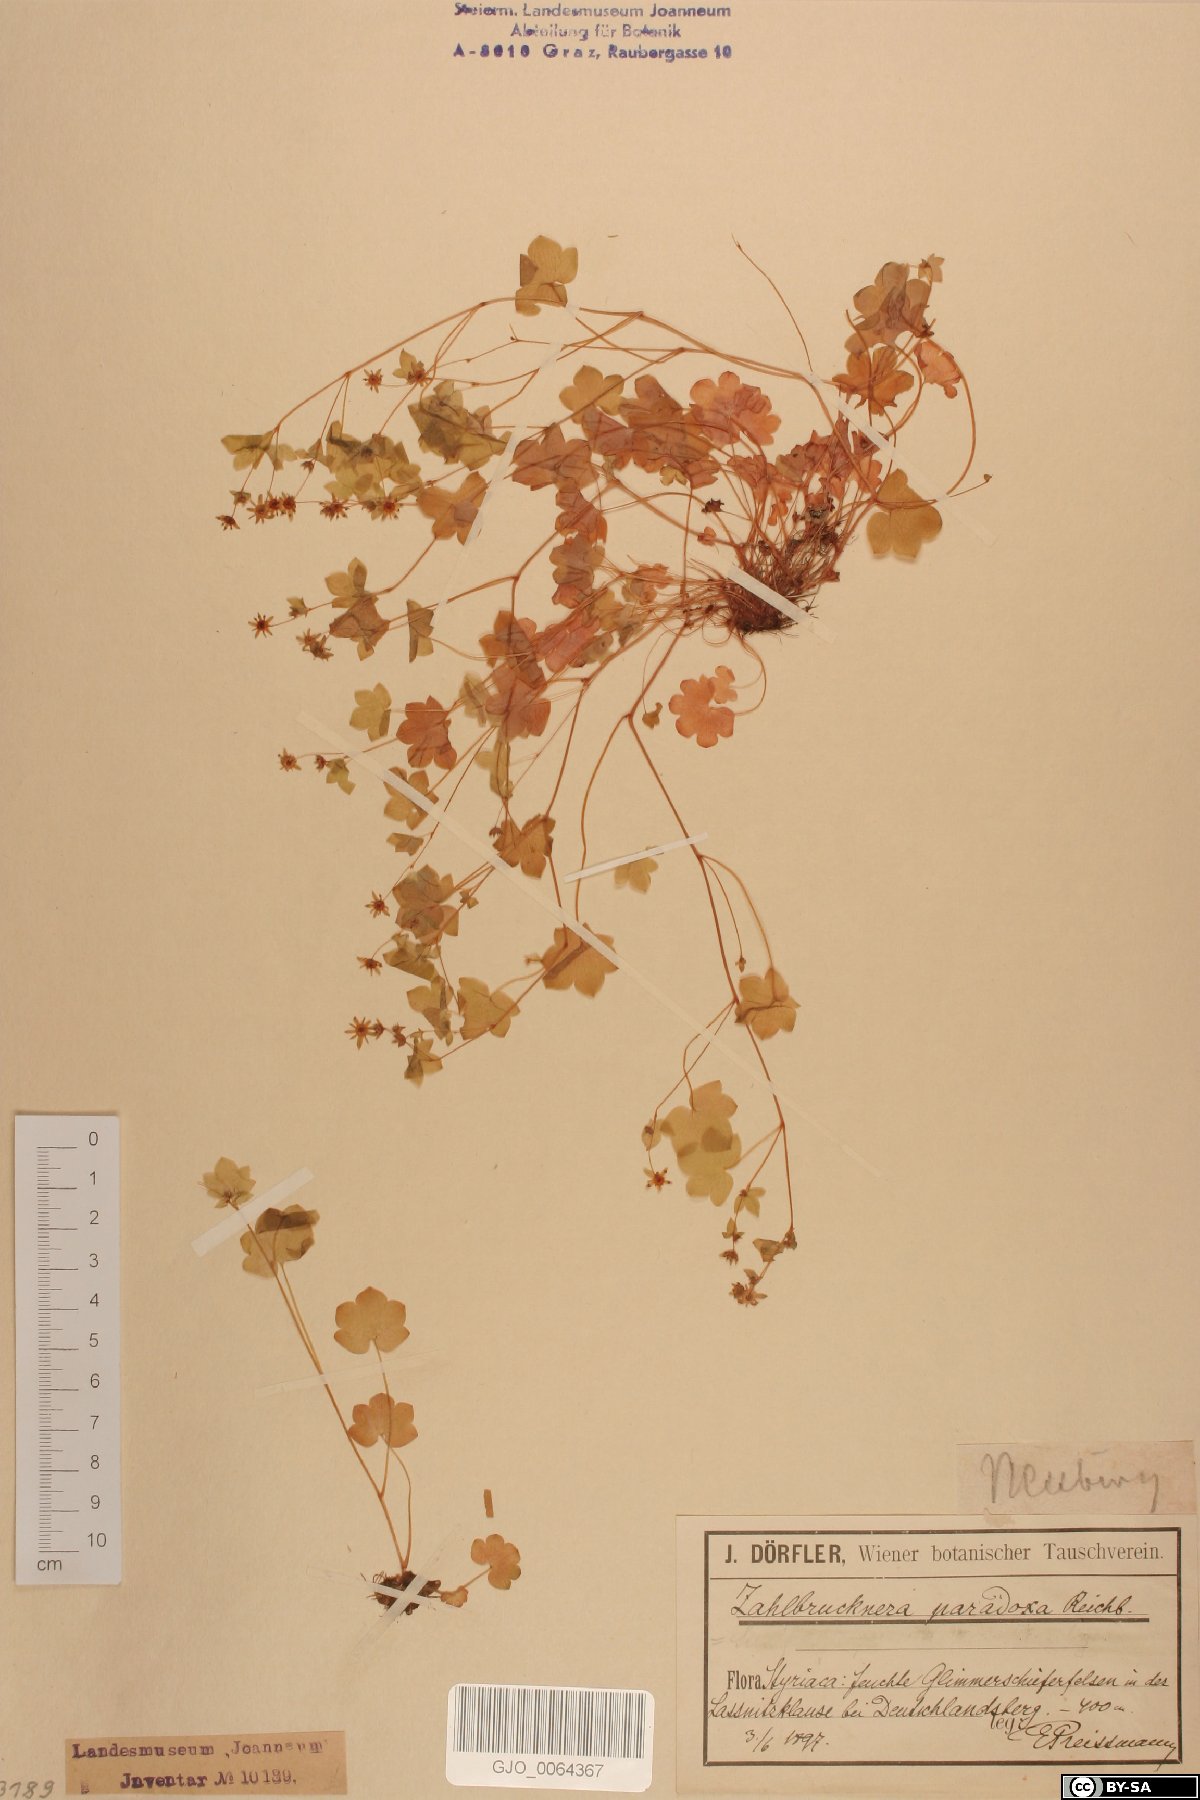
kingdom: Plantae
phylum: Tracheophyta
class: Magnoliopsida
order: Saxifragales
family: Saxifragaceae
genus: Saxifraga
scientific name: Saxifraga paradoxa
